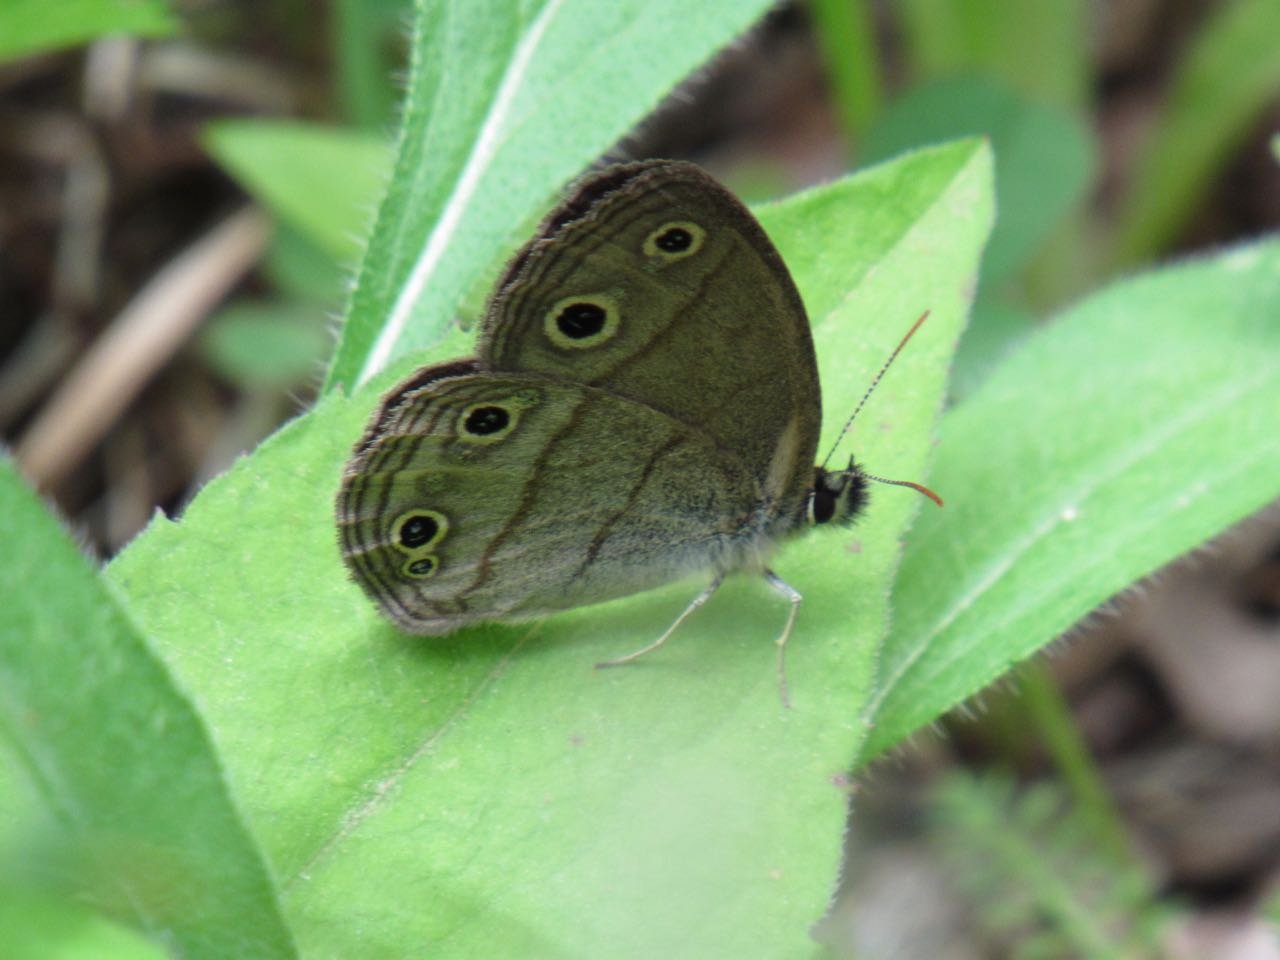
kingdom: Animalia
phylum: Arthropoda
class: Insecta
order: Lepidoptera
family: Nymphalidae
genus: Euptychia
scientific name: Euptychia cymela
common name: Little Wood Satyr
